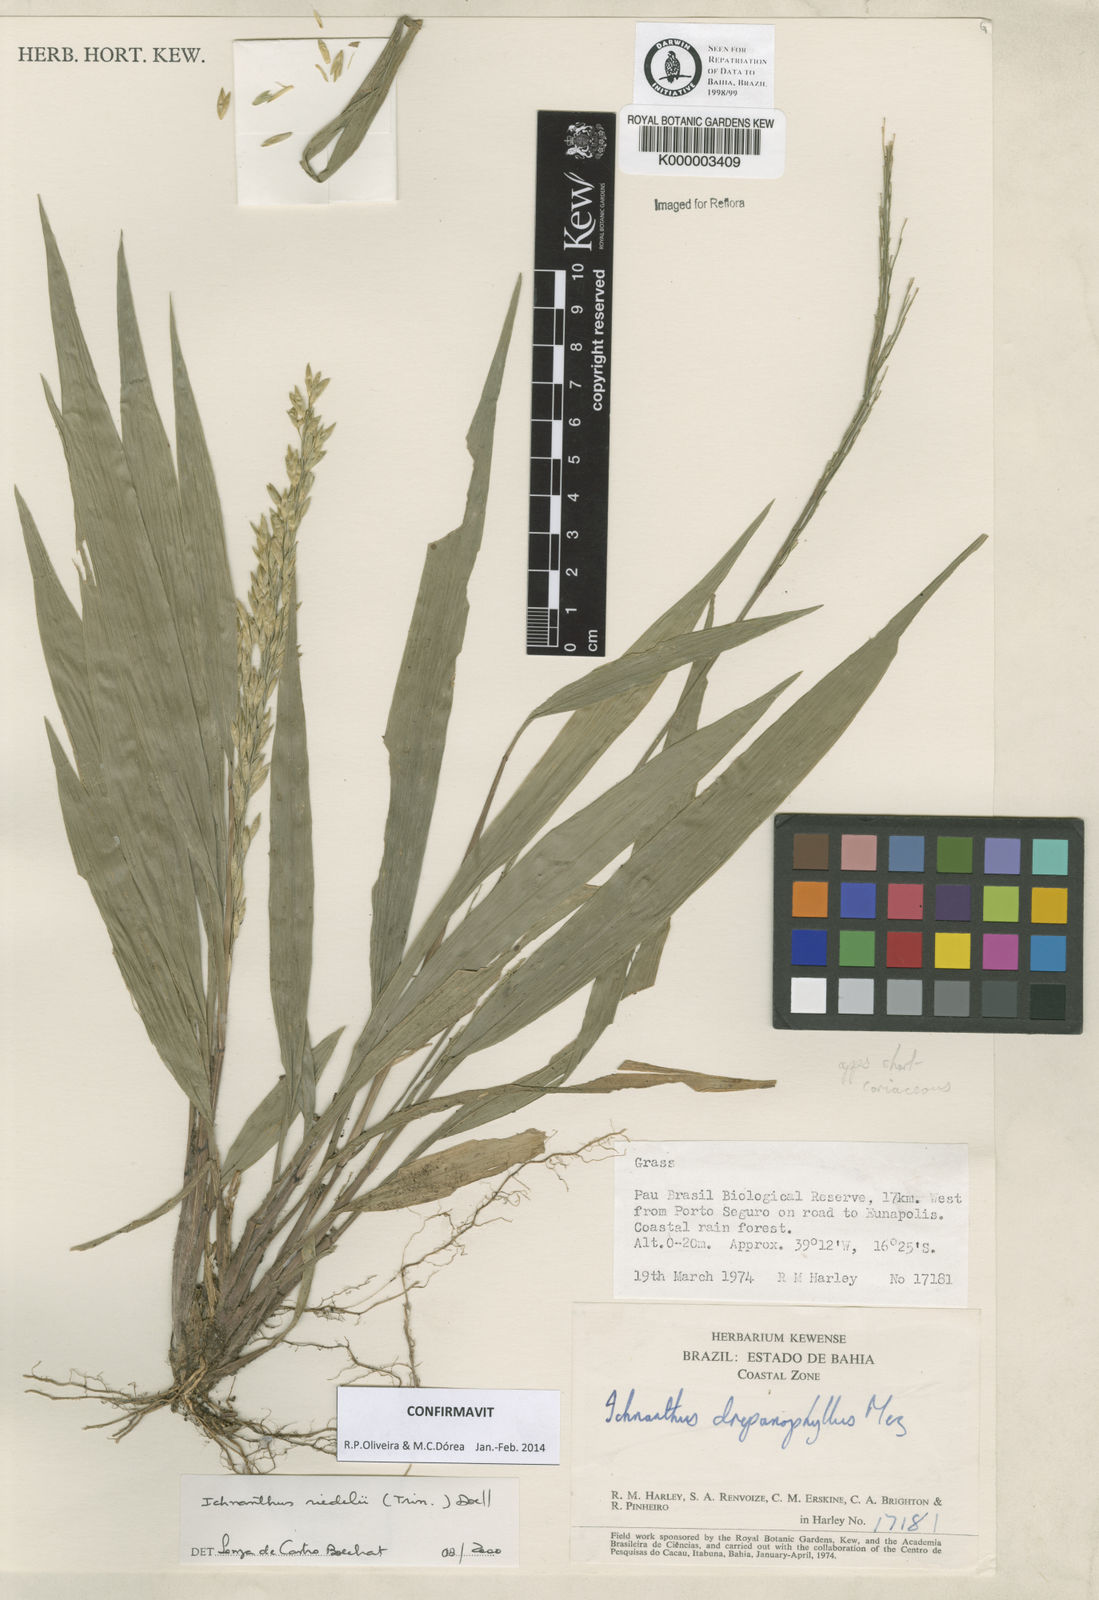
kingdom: Plantae
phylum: Tracheophyta
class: Liliopsida
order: Poales
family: Poaceae
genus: Ichnanthus
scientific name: Ichnanthus
